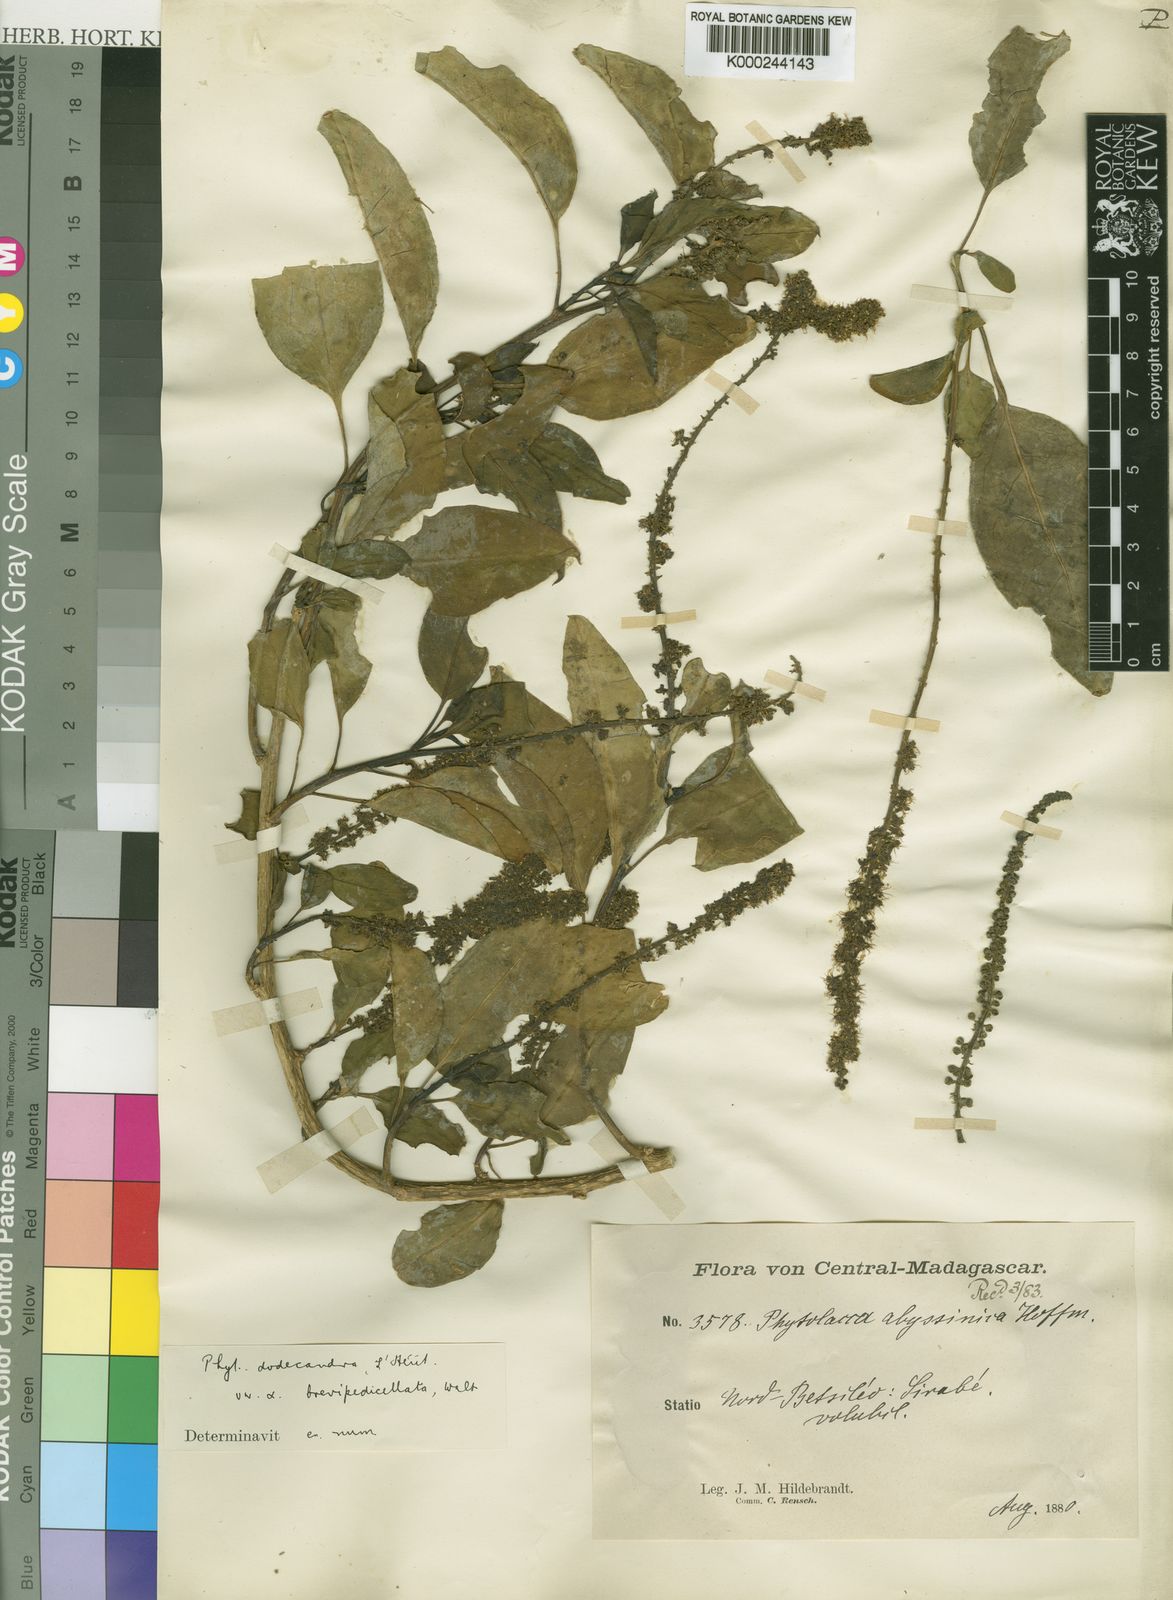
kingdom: Plantae
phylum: Tracheophyta
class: Magnoliopsida
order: Caryophyllales
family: Phytolaccaceae
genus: Phytolacca
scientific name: Phytolacca
